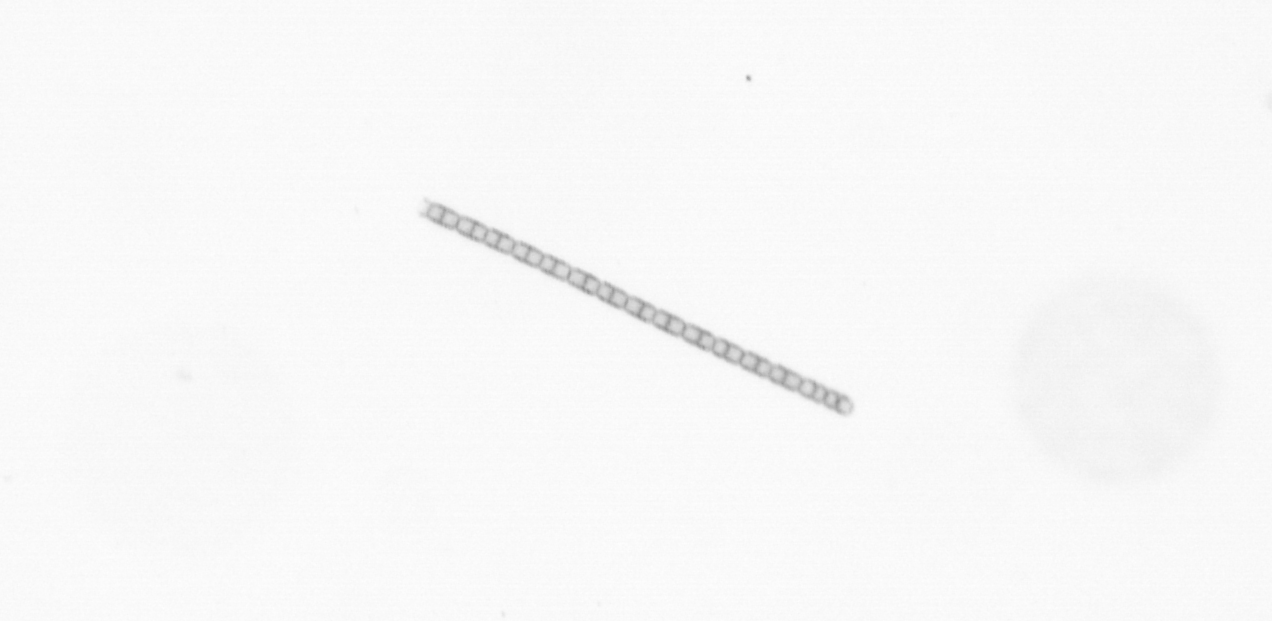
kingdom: Chromista
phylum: Ochrophyta
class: Bacillariophyceae
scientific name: Bacillariophyceae
